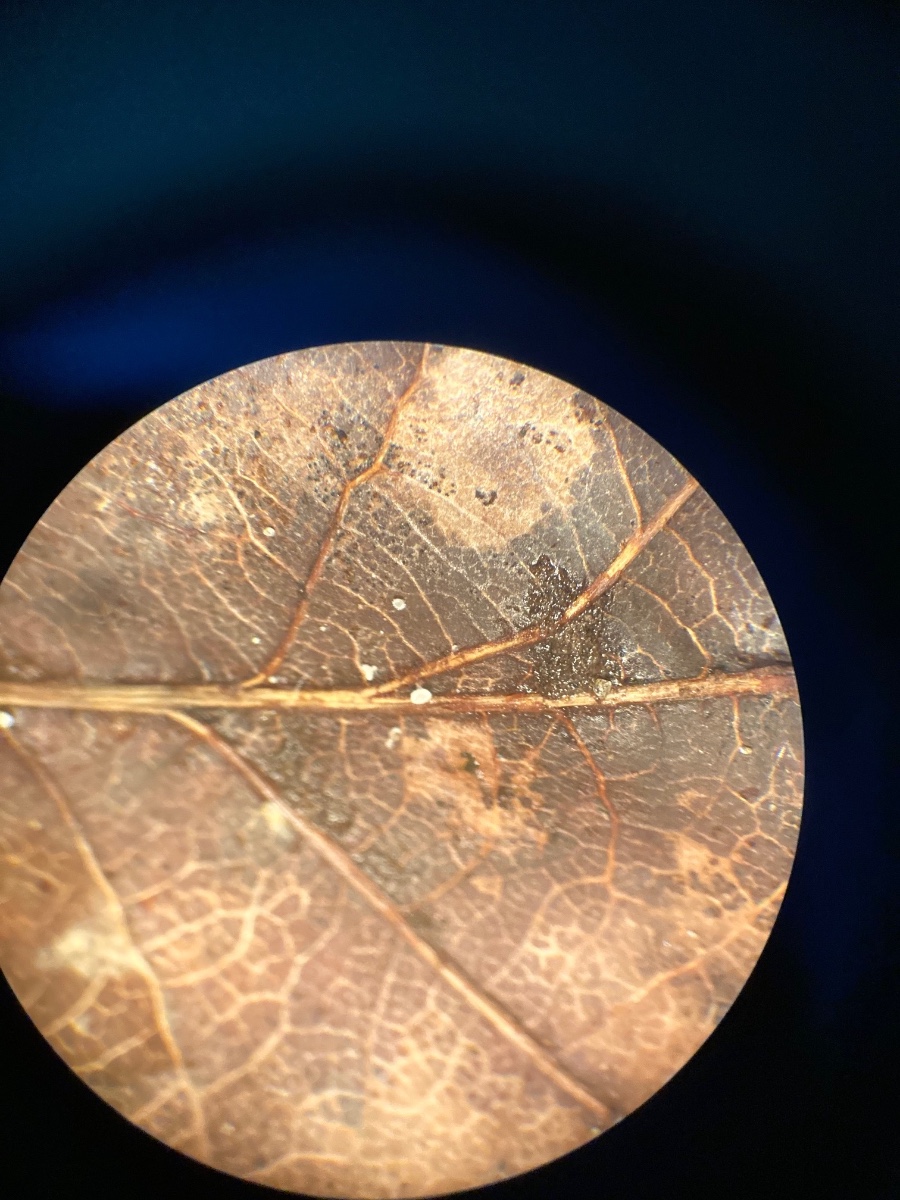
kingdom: Fungi
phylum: Ascomycota
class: Leotiomycetes
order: Helotiales
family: Lachnaceae
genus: Lachnum
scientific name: Lachnum rhytismatis
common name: blad-frynseskive
